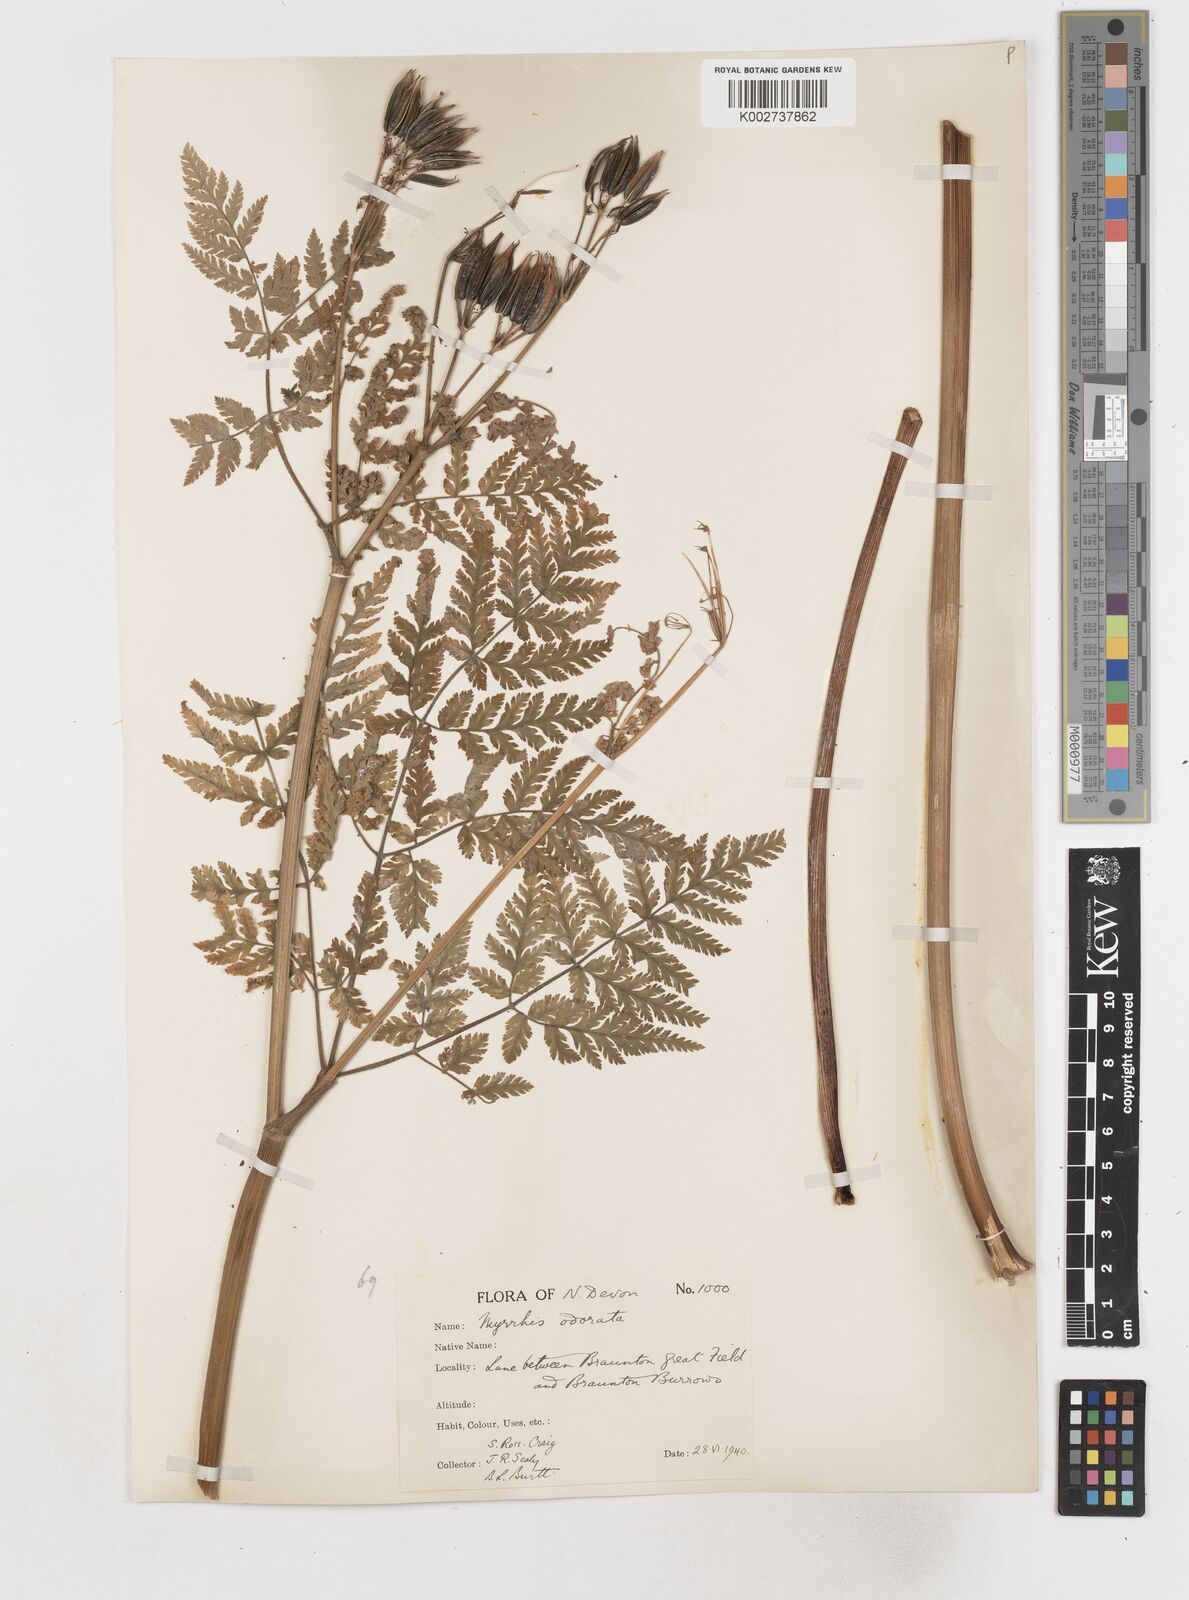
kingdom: Plantae
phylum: Tracheophyta
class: Magnoliopsida
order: Apiales
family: Apiaceae
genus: Myrrhis
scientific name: Myrrhis odorata
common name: Sweet cicely
